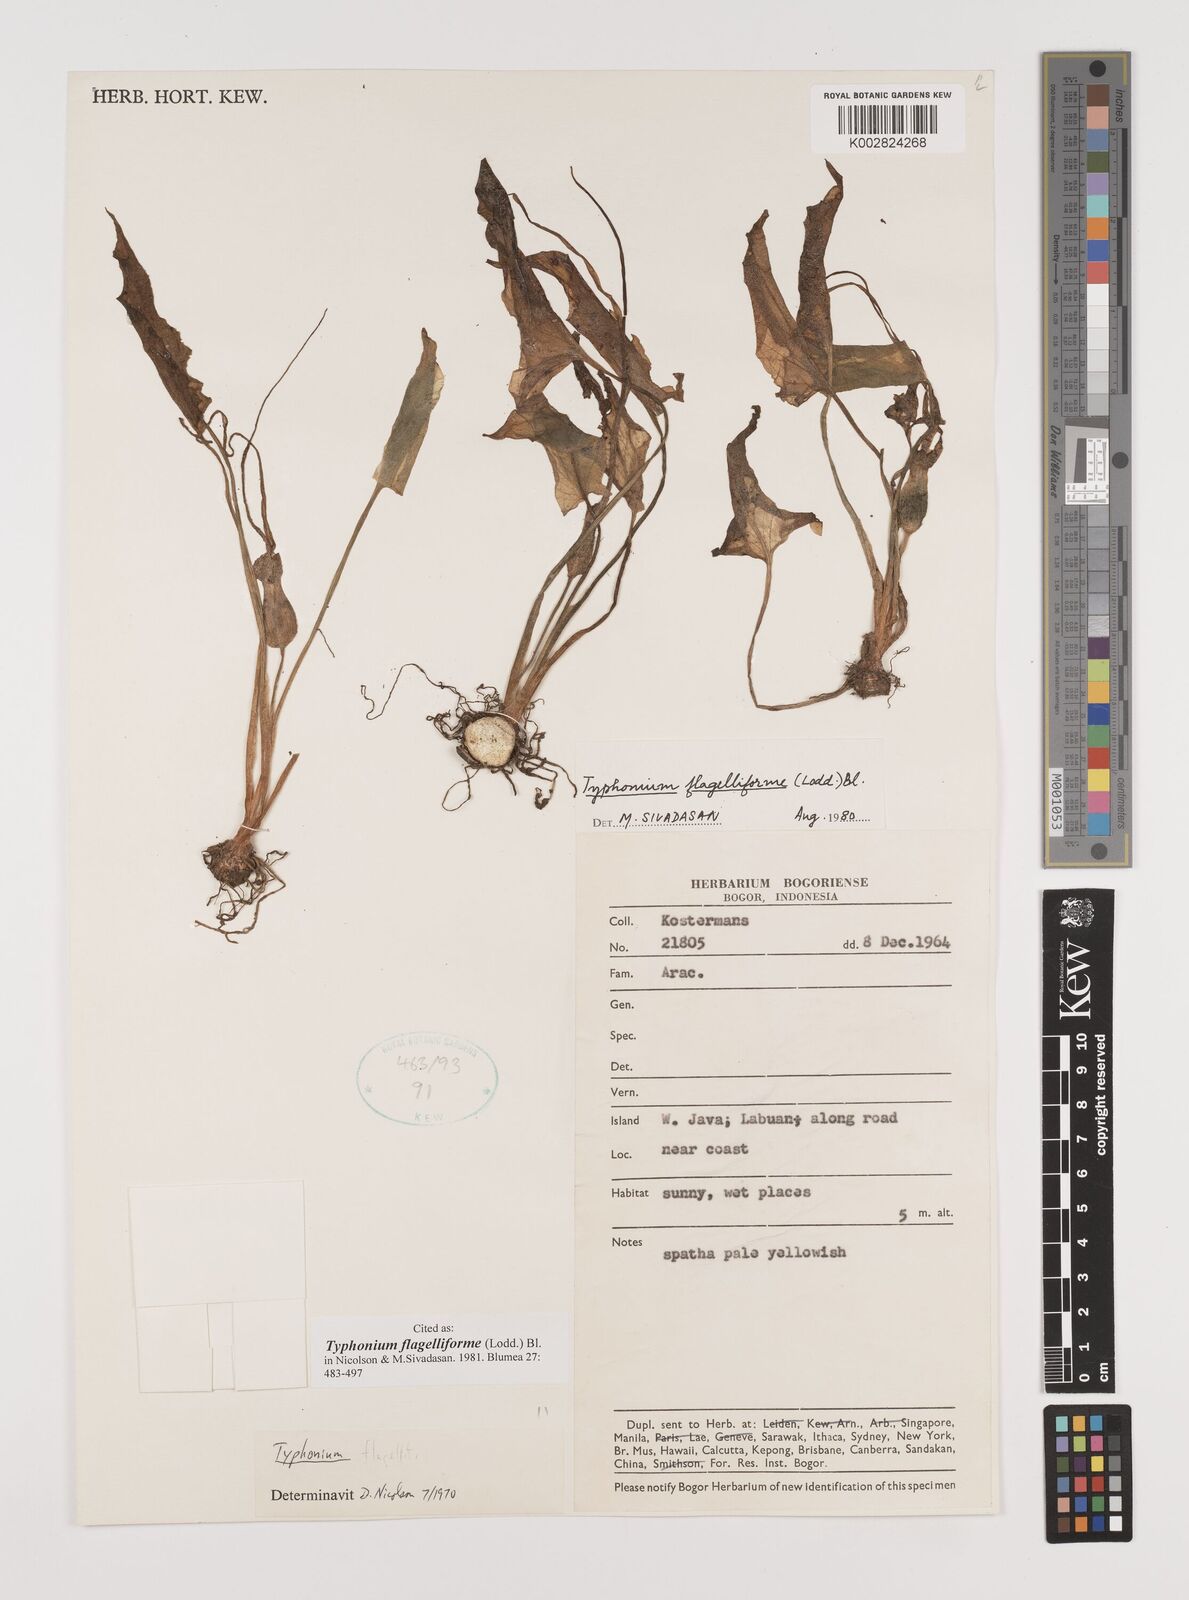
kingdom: Plantae
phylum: Tracheophyta
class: Liliopsida
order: Alismatales
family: Araceae
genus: Typhonium
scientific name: Typhonium flagelliforme
